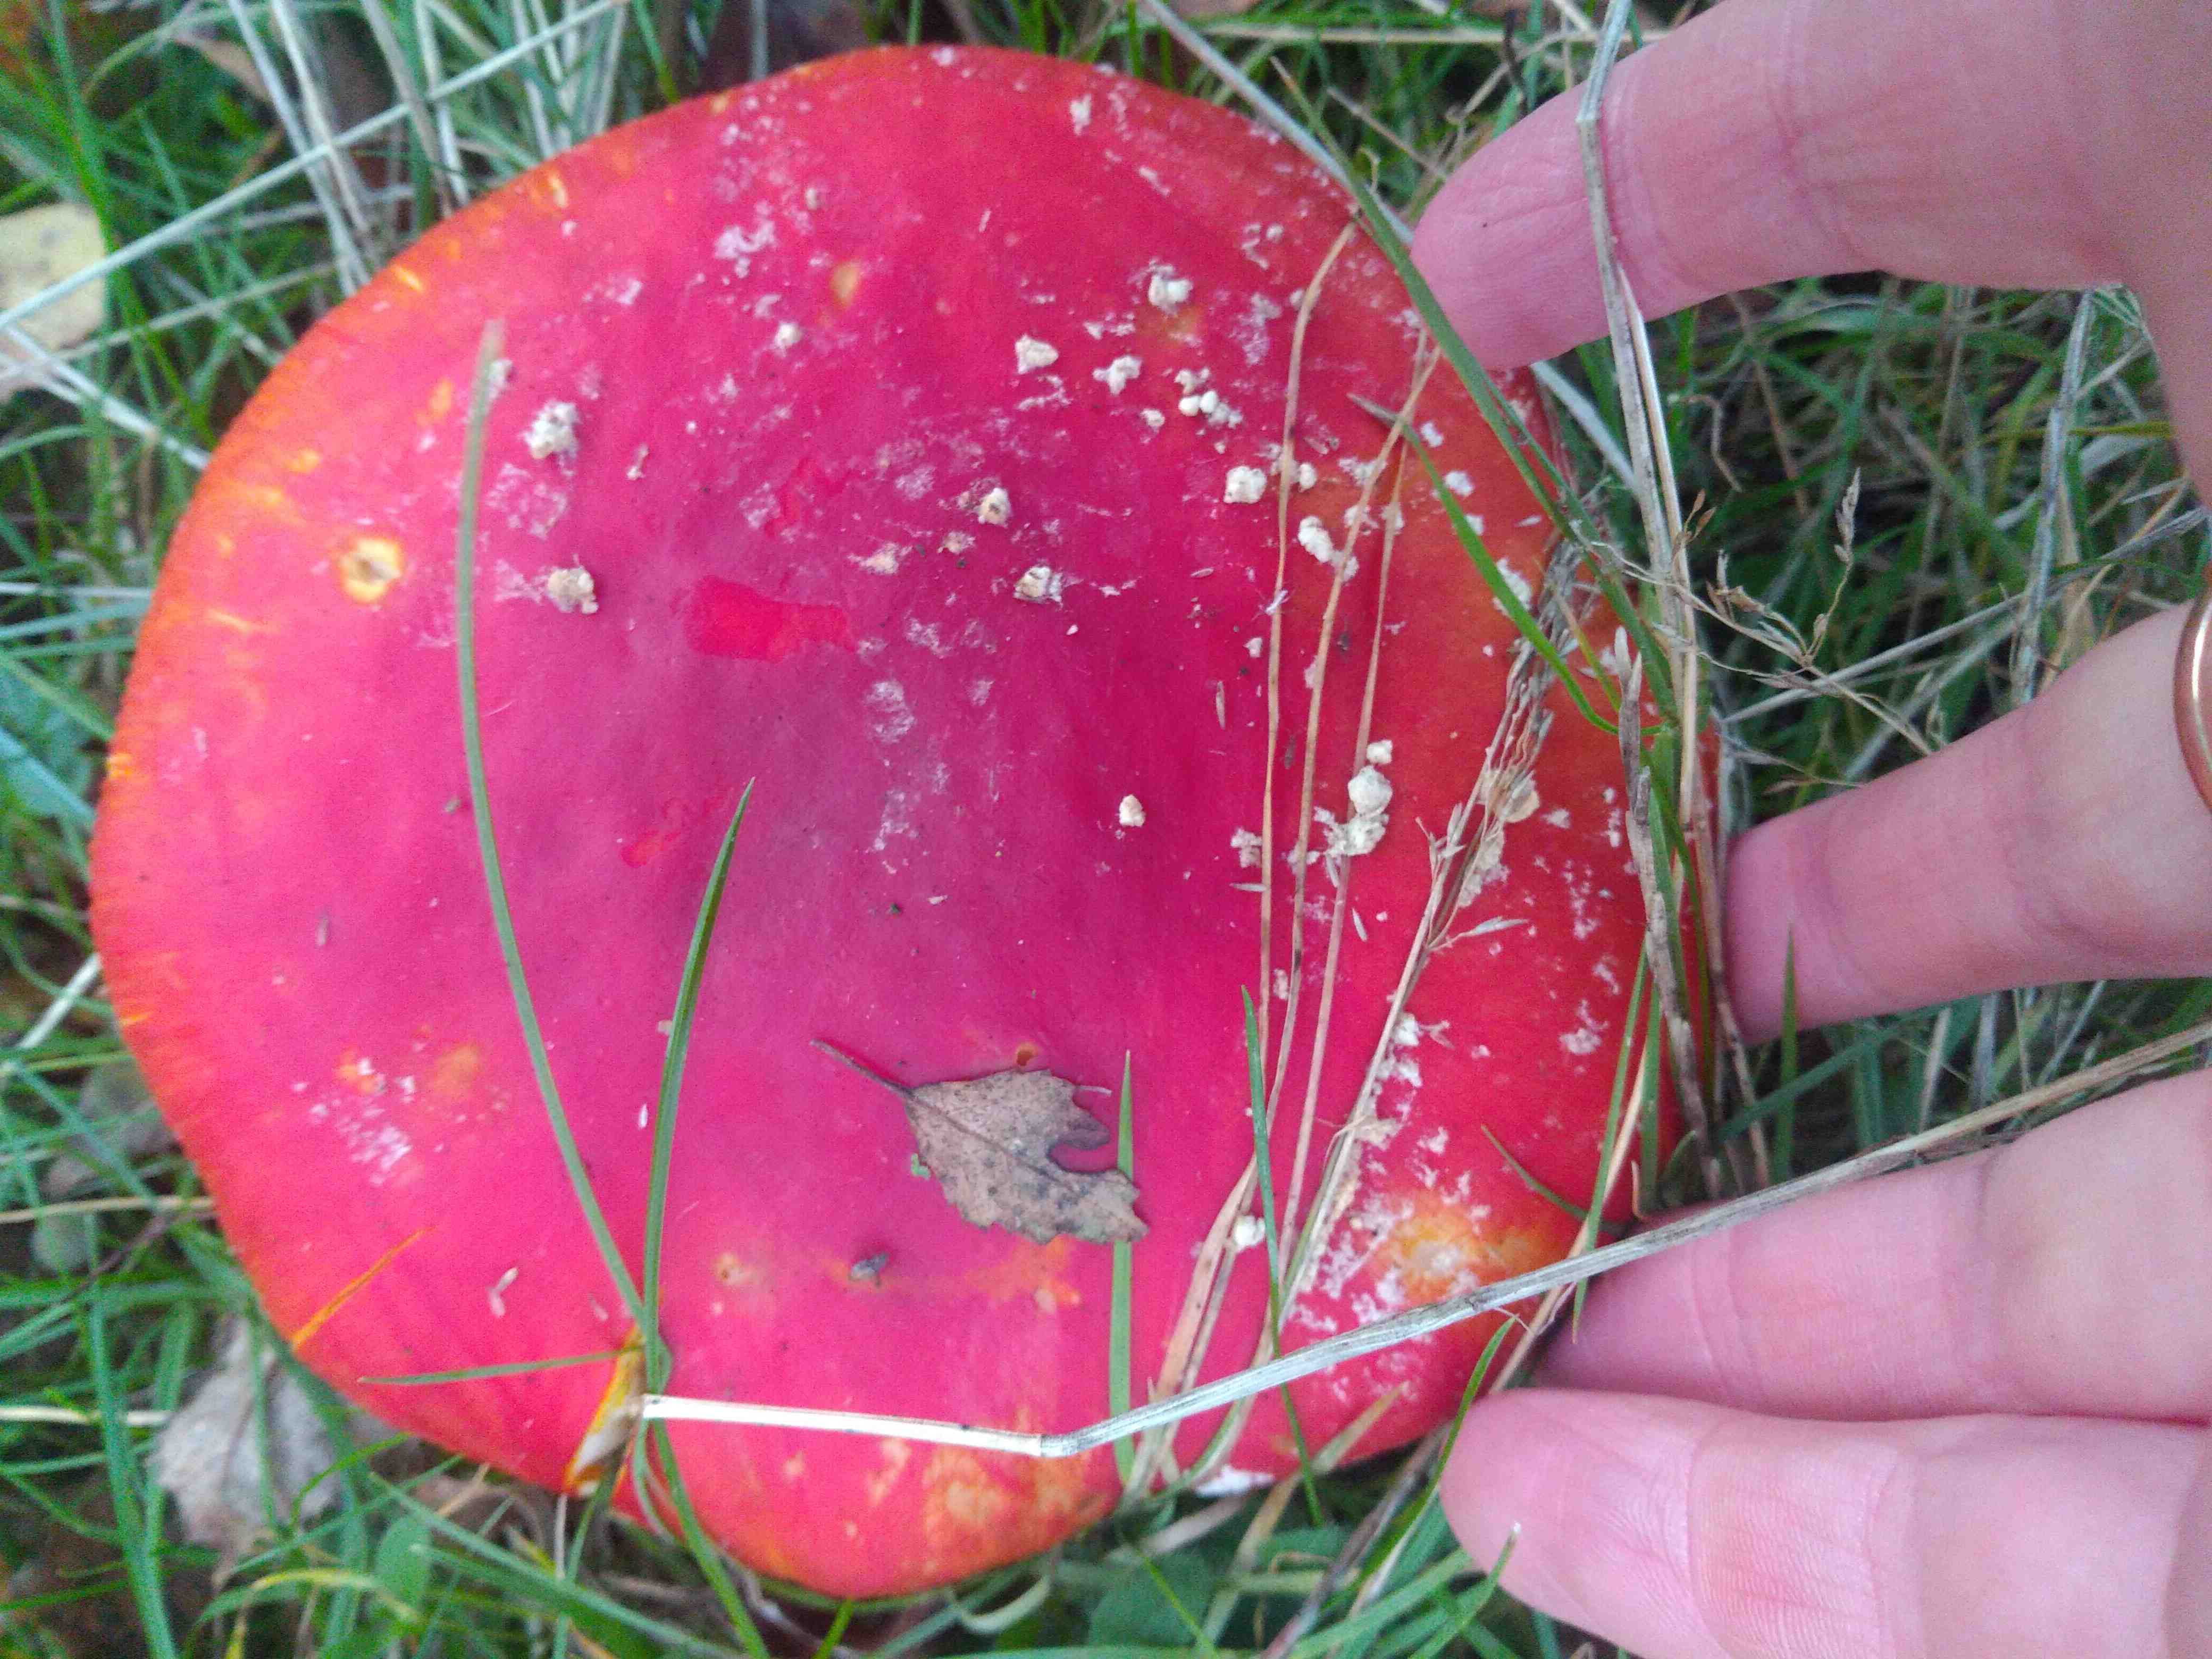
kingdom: Fungi
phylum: Basidiomycota
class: Agaricomycetes
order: Agaricales
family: Amanitaceae
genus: Amanita
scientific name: Amanita muscaria
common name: rød fluesvamp
